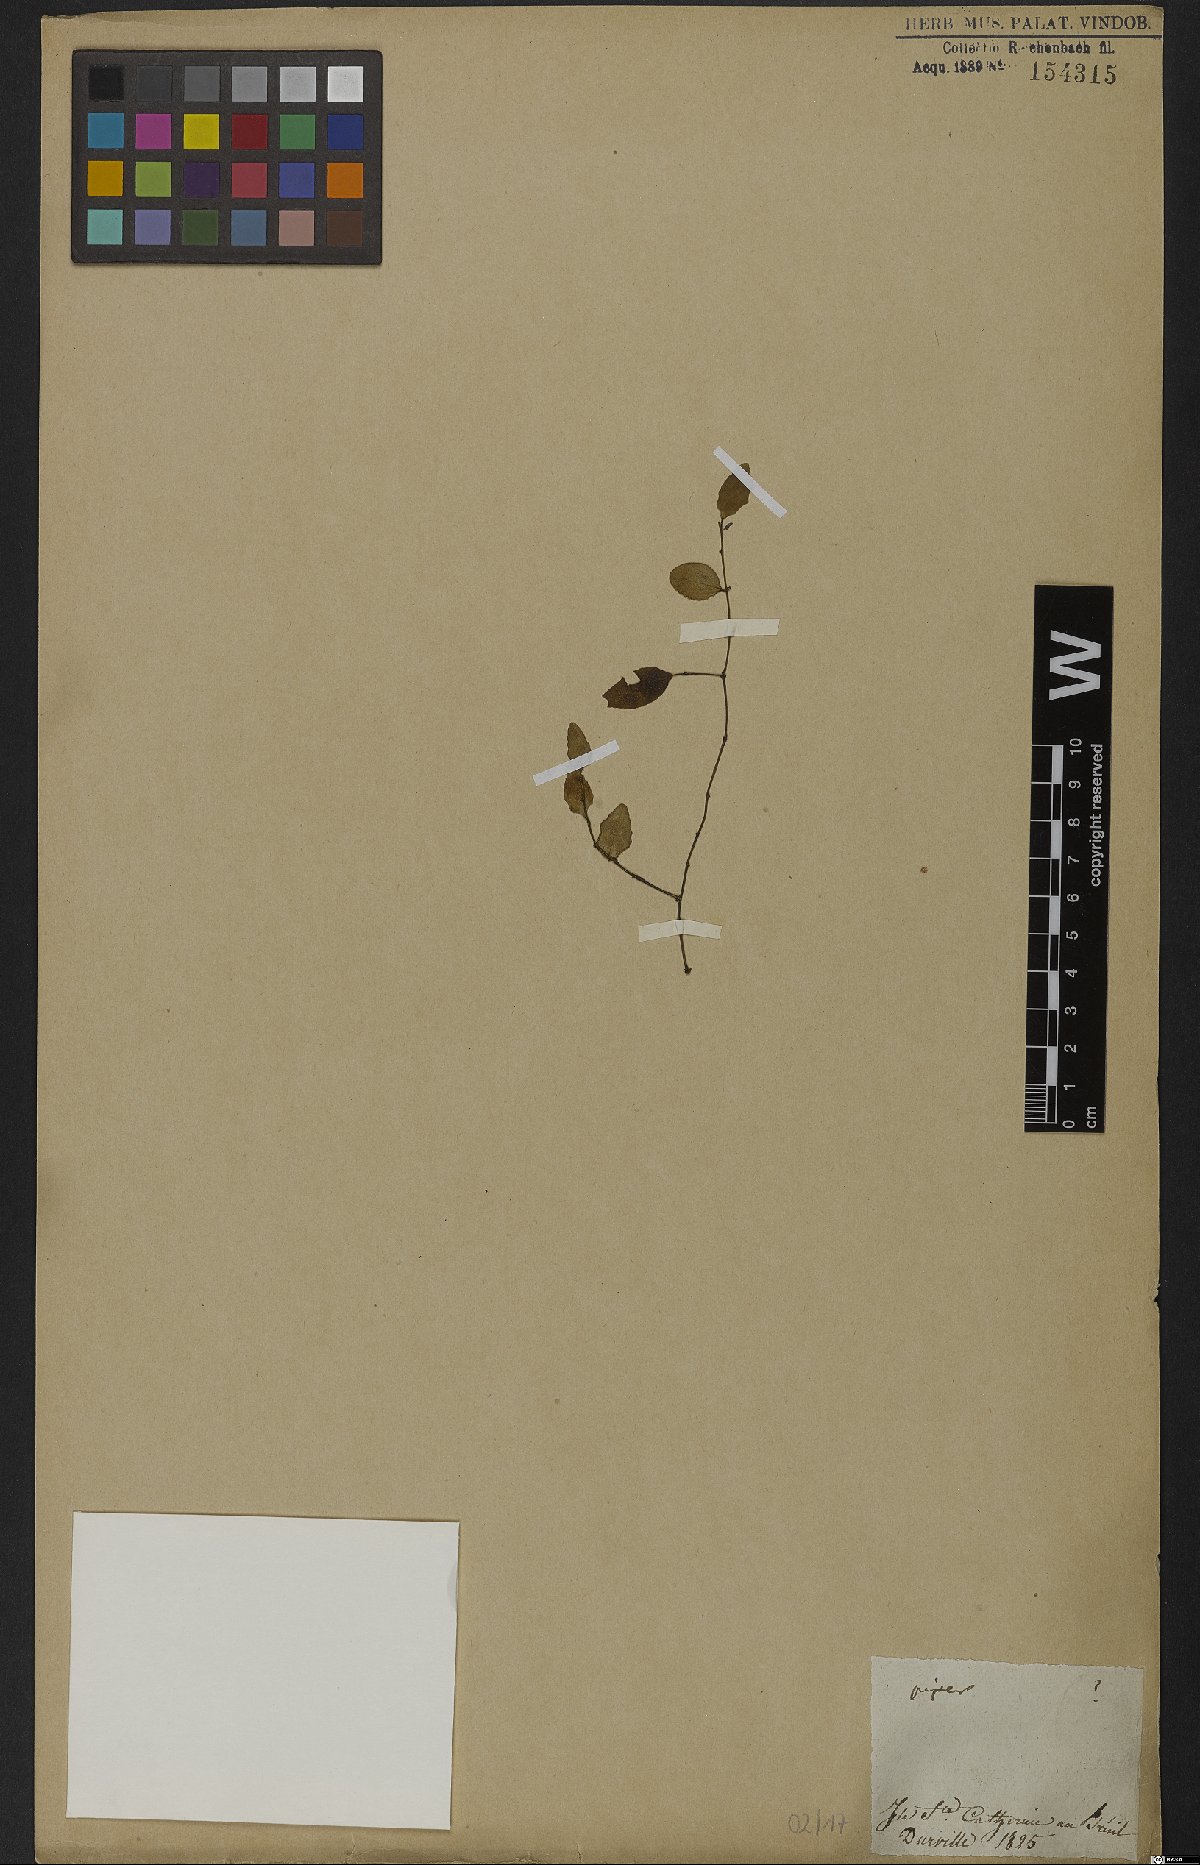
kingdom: Plantae
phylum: Tracheophyta
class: Magnoliopsida
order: Piperales
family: Piperaceae
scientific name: Piperaceae
